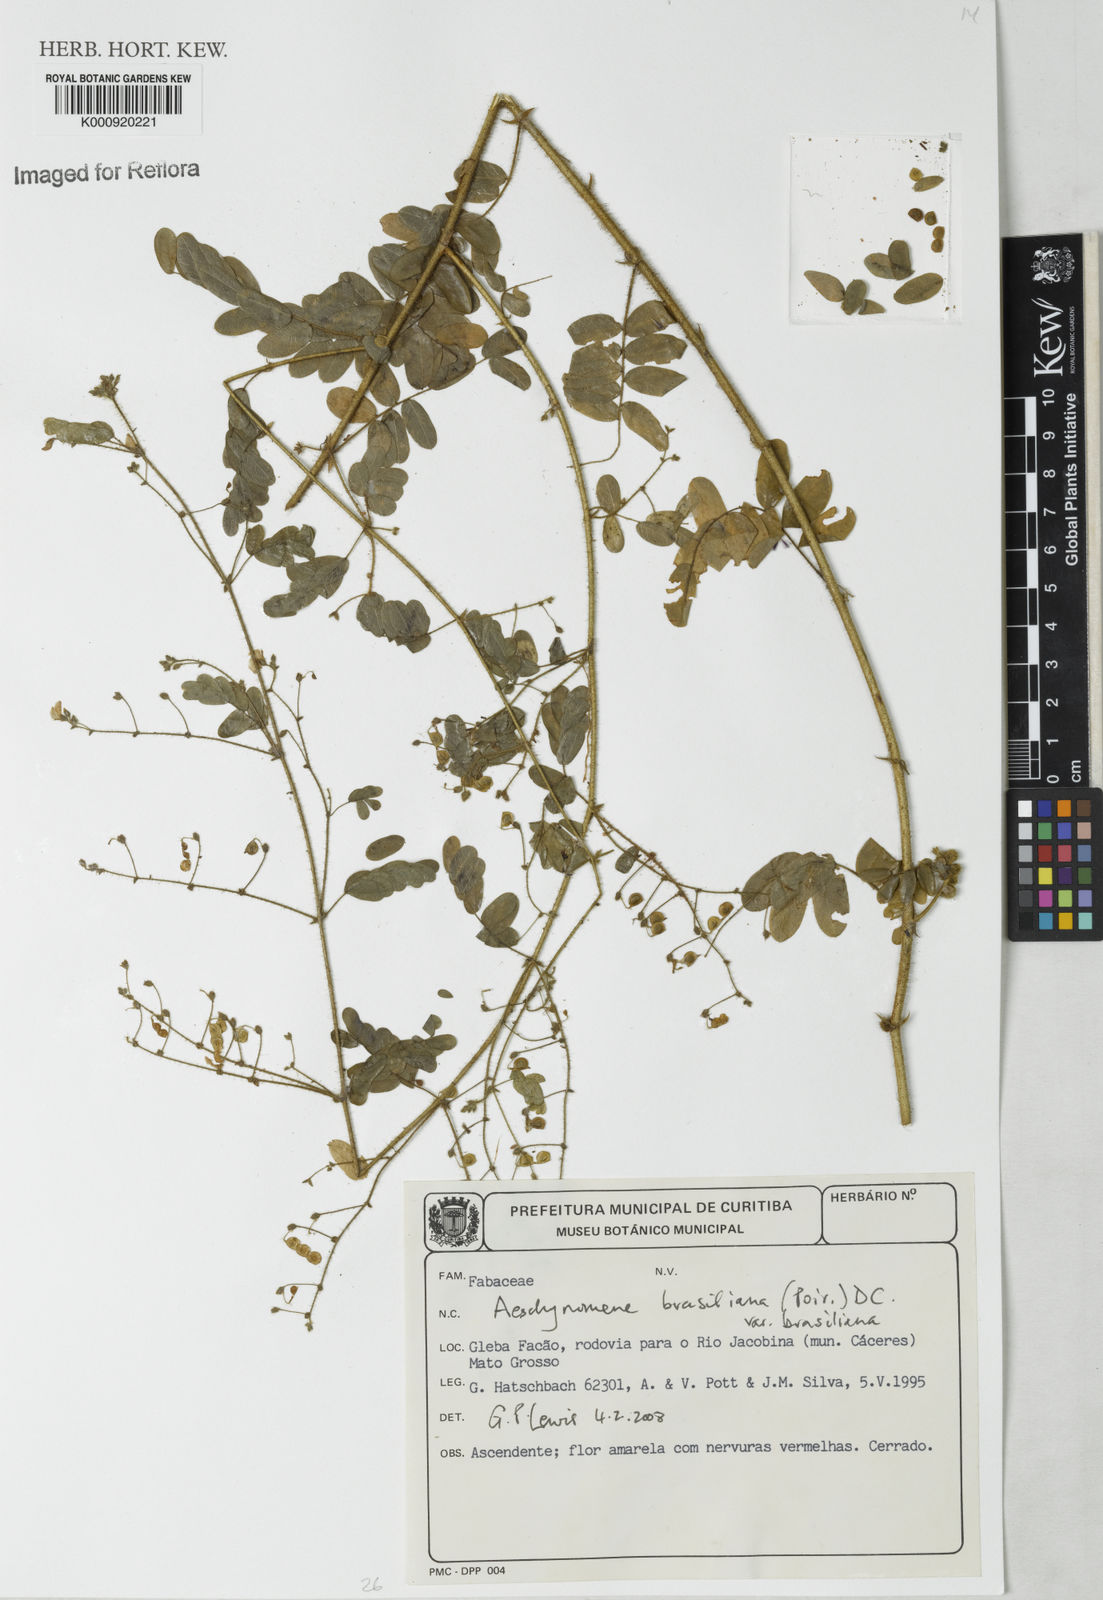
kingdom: Plantae
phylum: Tracheophyta
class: Magnoliopsida
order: Fabales
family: Fabaceae
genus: Ctenodon
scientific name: Ctenodon brasilianus
